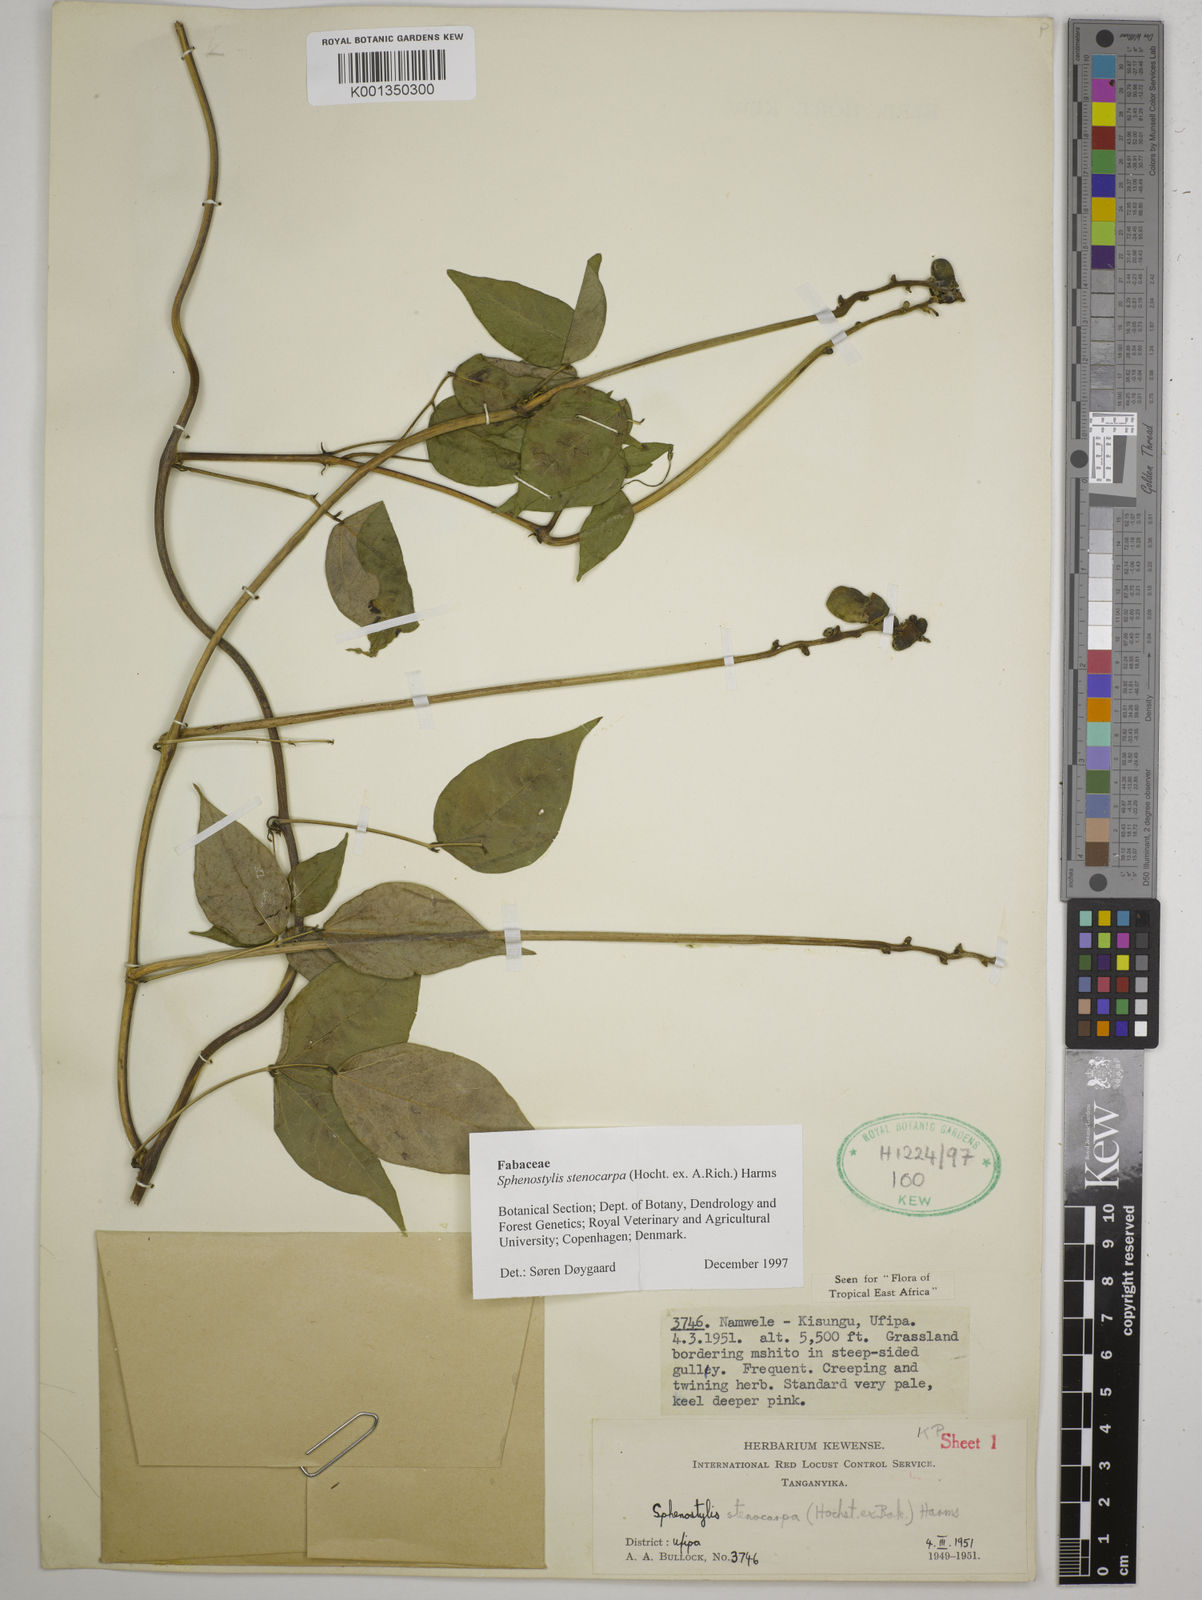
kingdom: Plantae
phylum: Tracheophyta
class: Magnoliopsida
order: Fabales
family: Fabaceae
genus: Sphenostylis
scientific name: Sphenostylis stenocarpa
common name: Yam-pea
